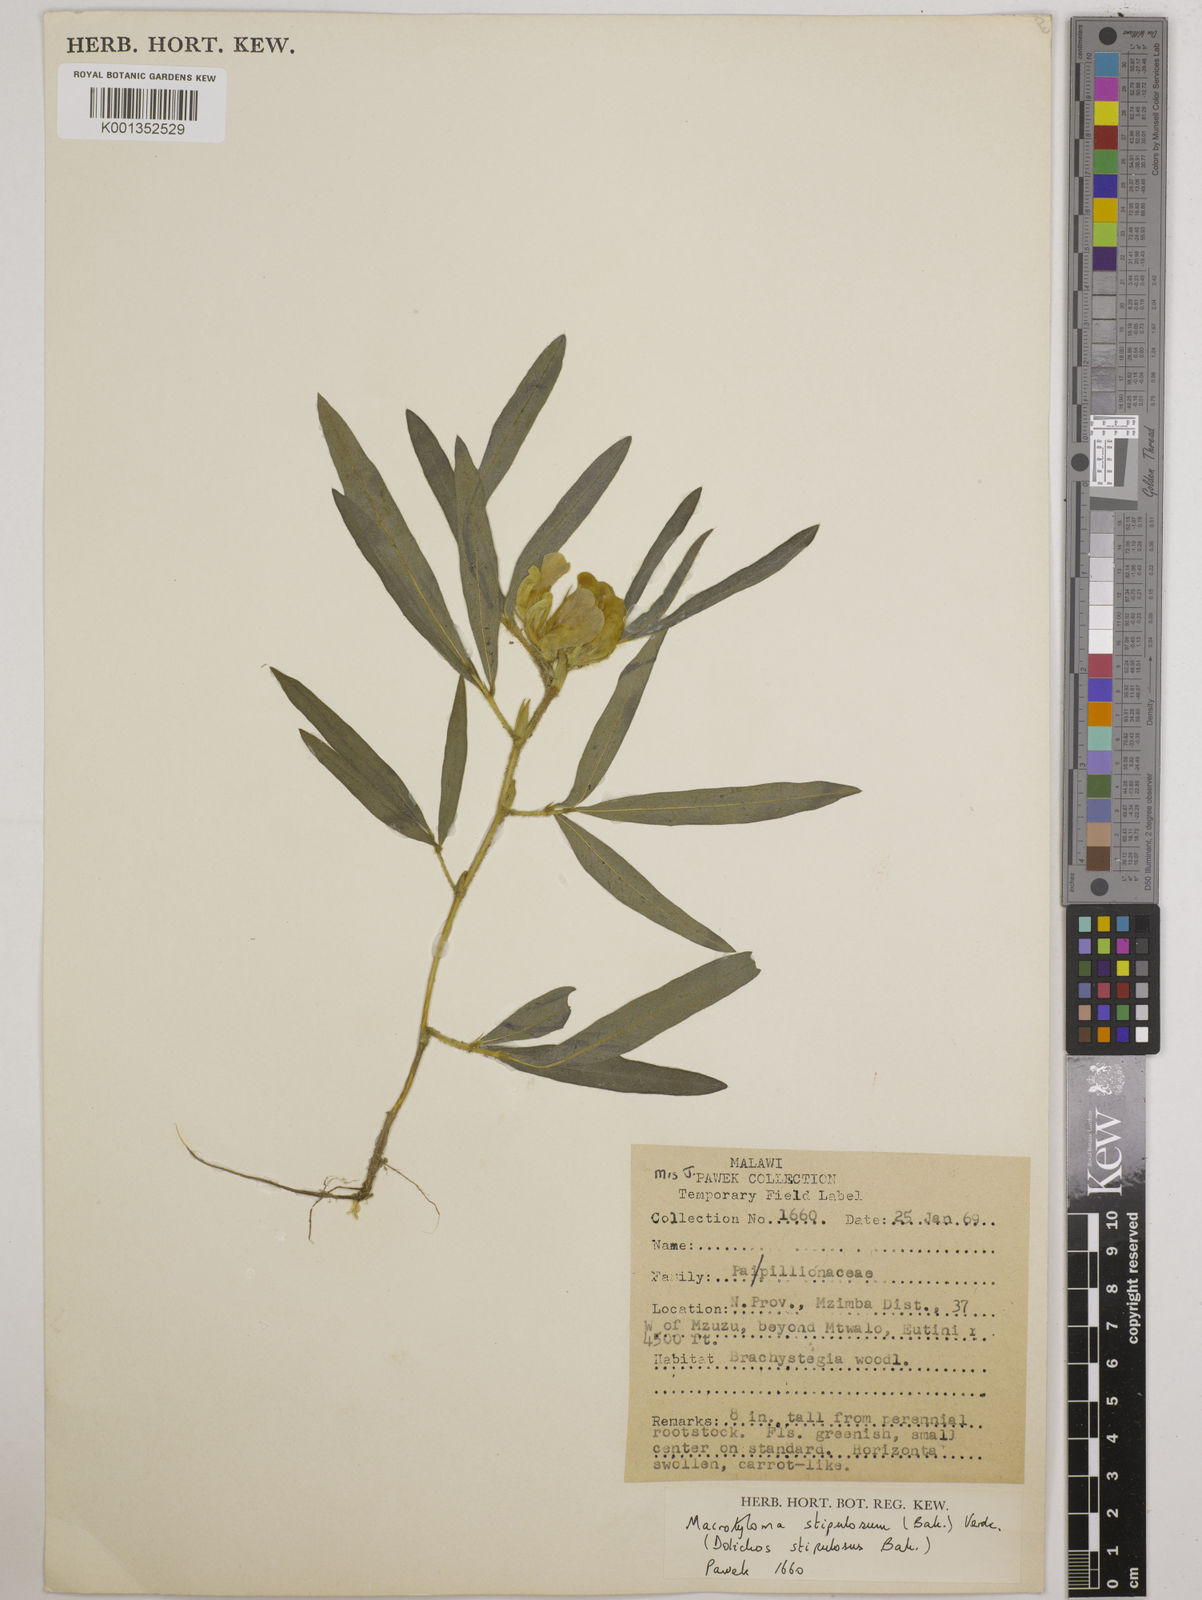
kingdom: Plantae
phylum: Tracheophyta
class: Magnoliopsida
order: Fabales
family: Fabaceae
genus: Macrotyloma
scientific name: Macrotyloma stipulosum
